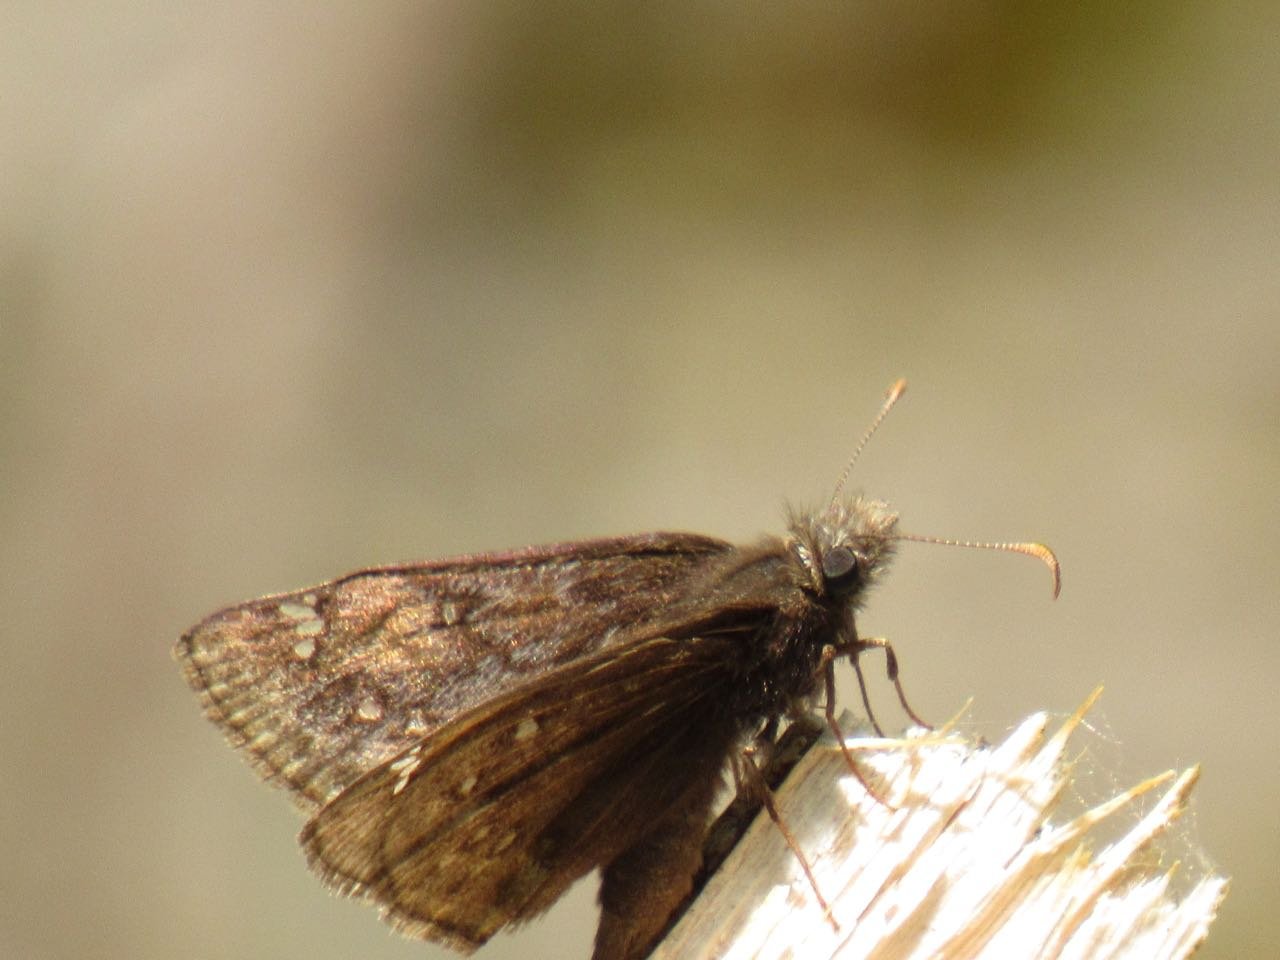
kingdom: Animalia
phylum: Arthropoda
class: Insecta
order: Lepidoptera
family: Hesperiidae
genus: Gesta
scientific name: Gesta
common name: Juvenal's Duskywing
